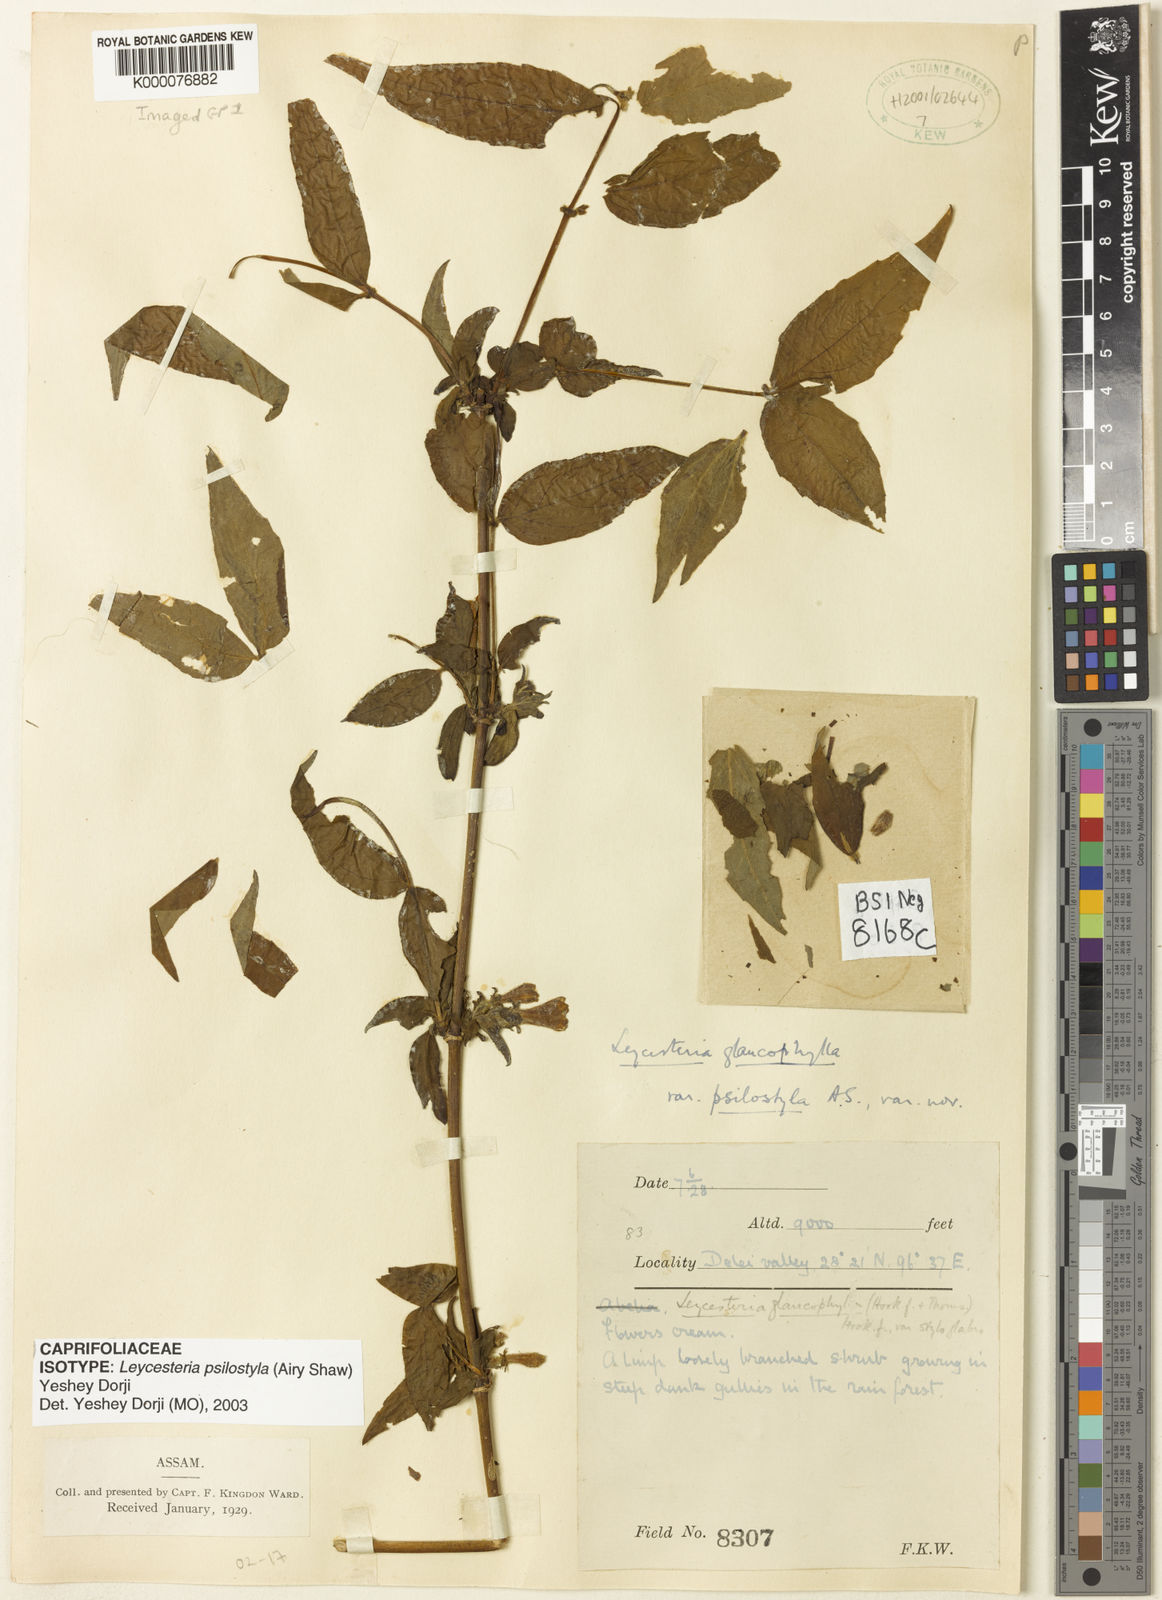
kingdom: Plantae
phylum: Tracheophyta
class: Magnoliopsida
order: Dipsacales
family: Caprifoliaceae
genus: Leycesteria
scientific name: Leycesteria glaucophylla
